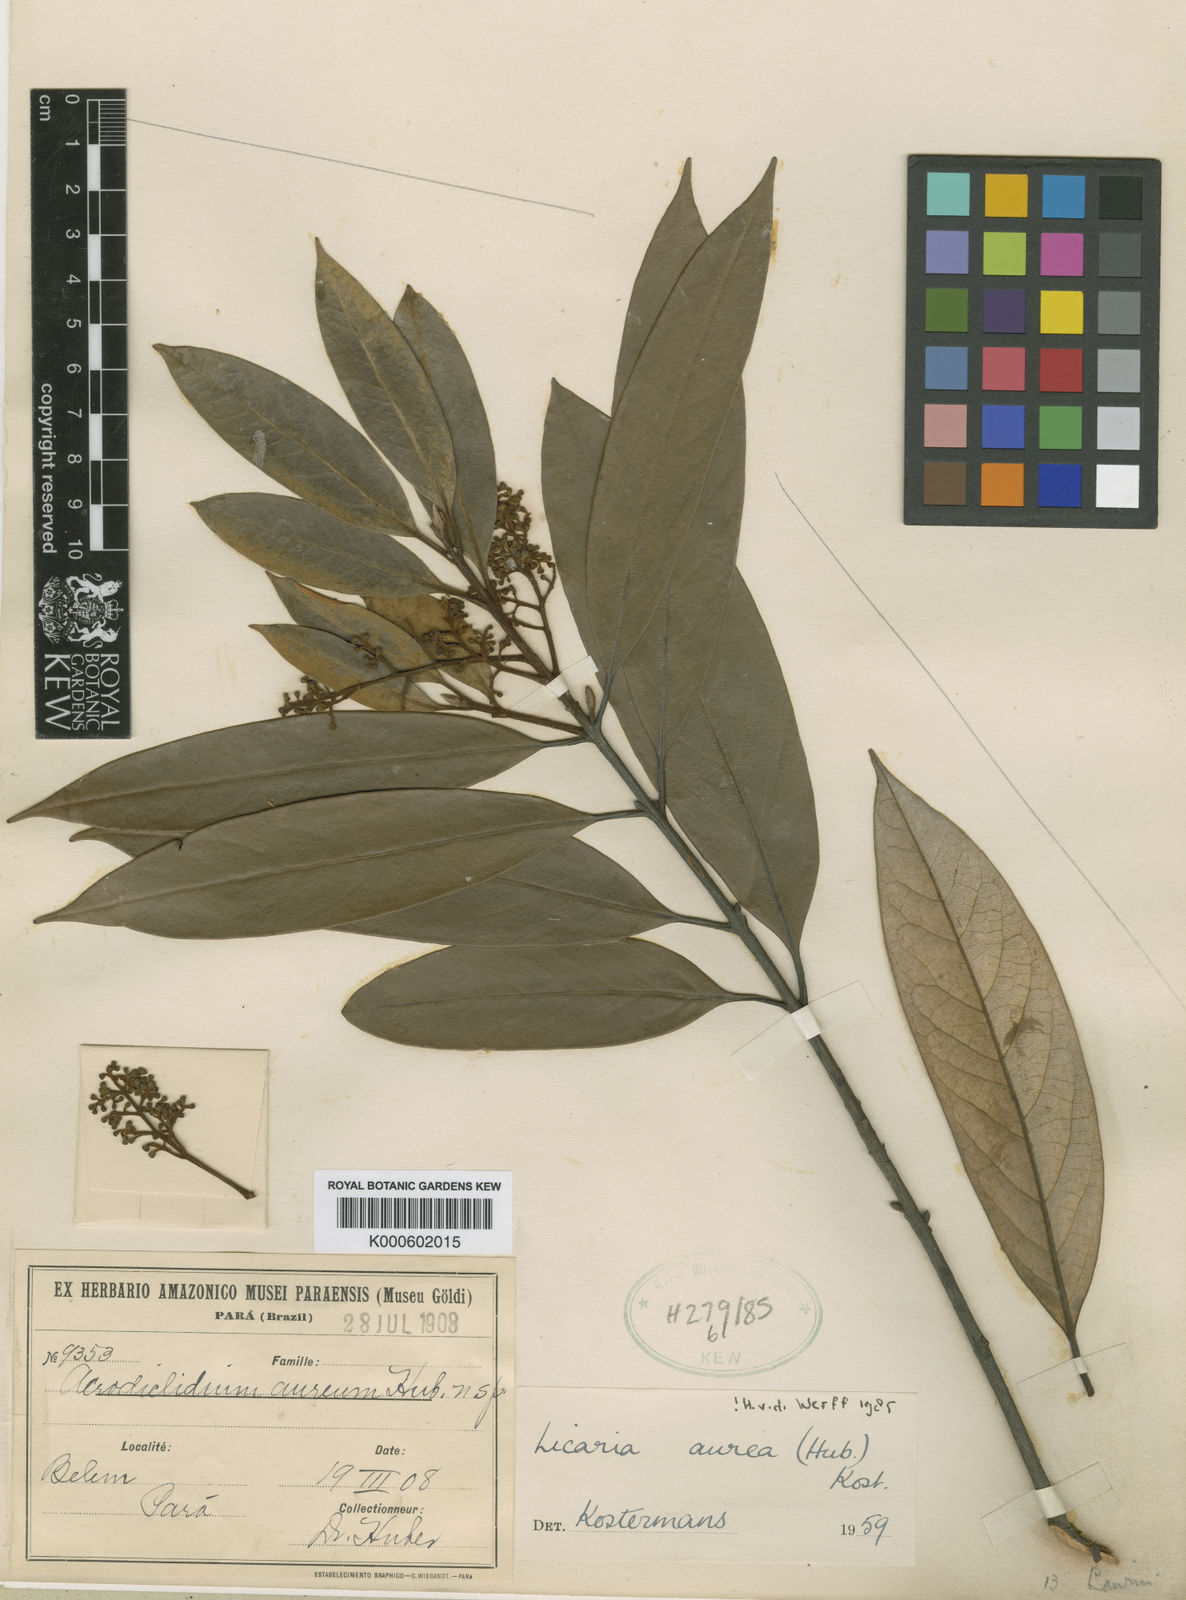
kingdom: Plantae
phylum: Tracheophyta
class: Magnoliopsida
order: Laurales
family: Lauraceae
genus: Licaria
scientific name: Licaria aurea
